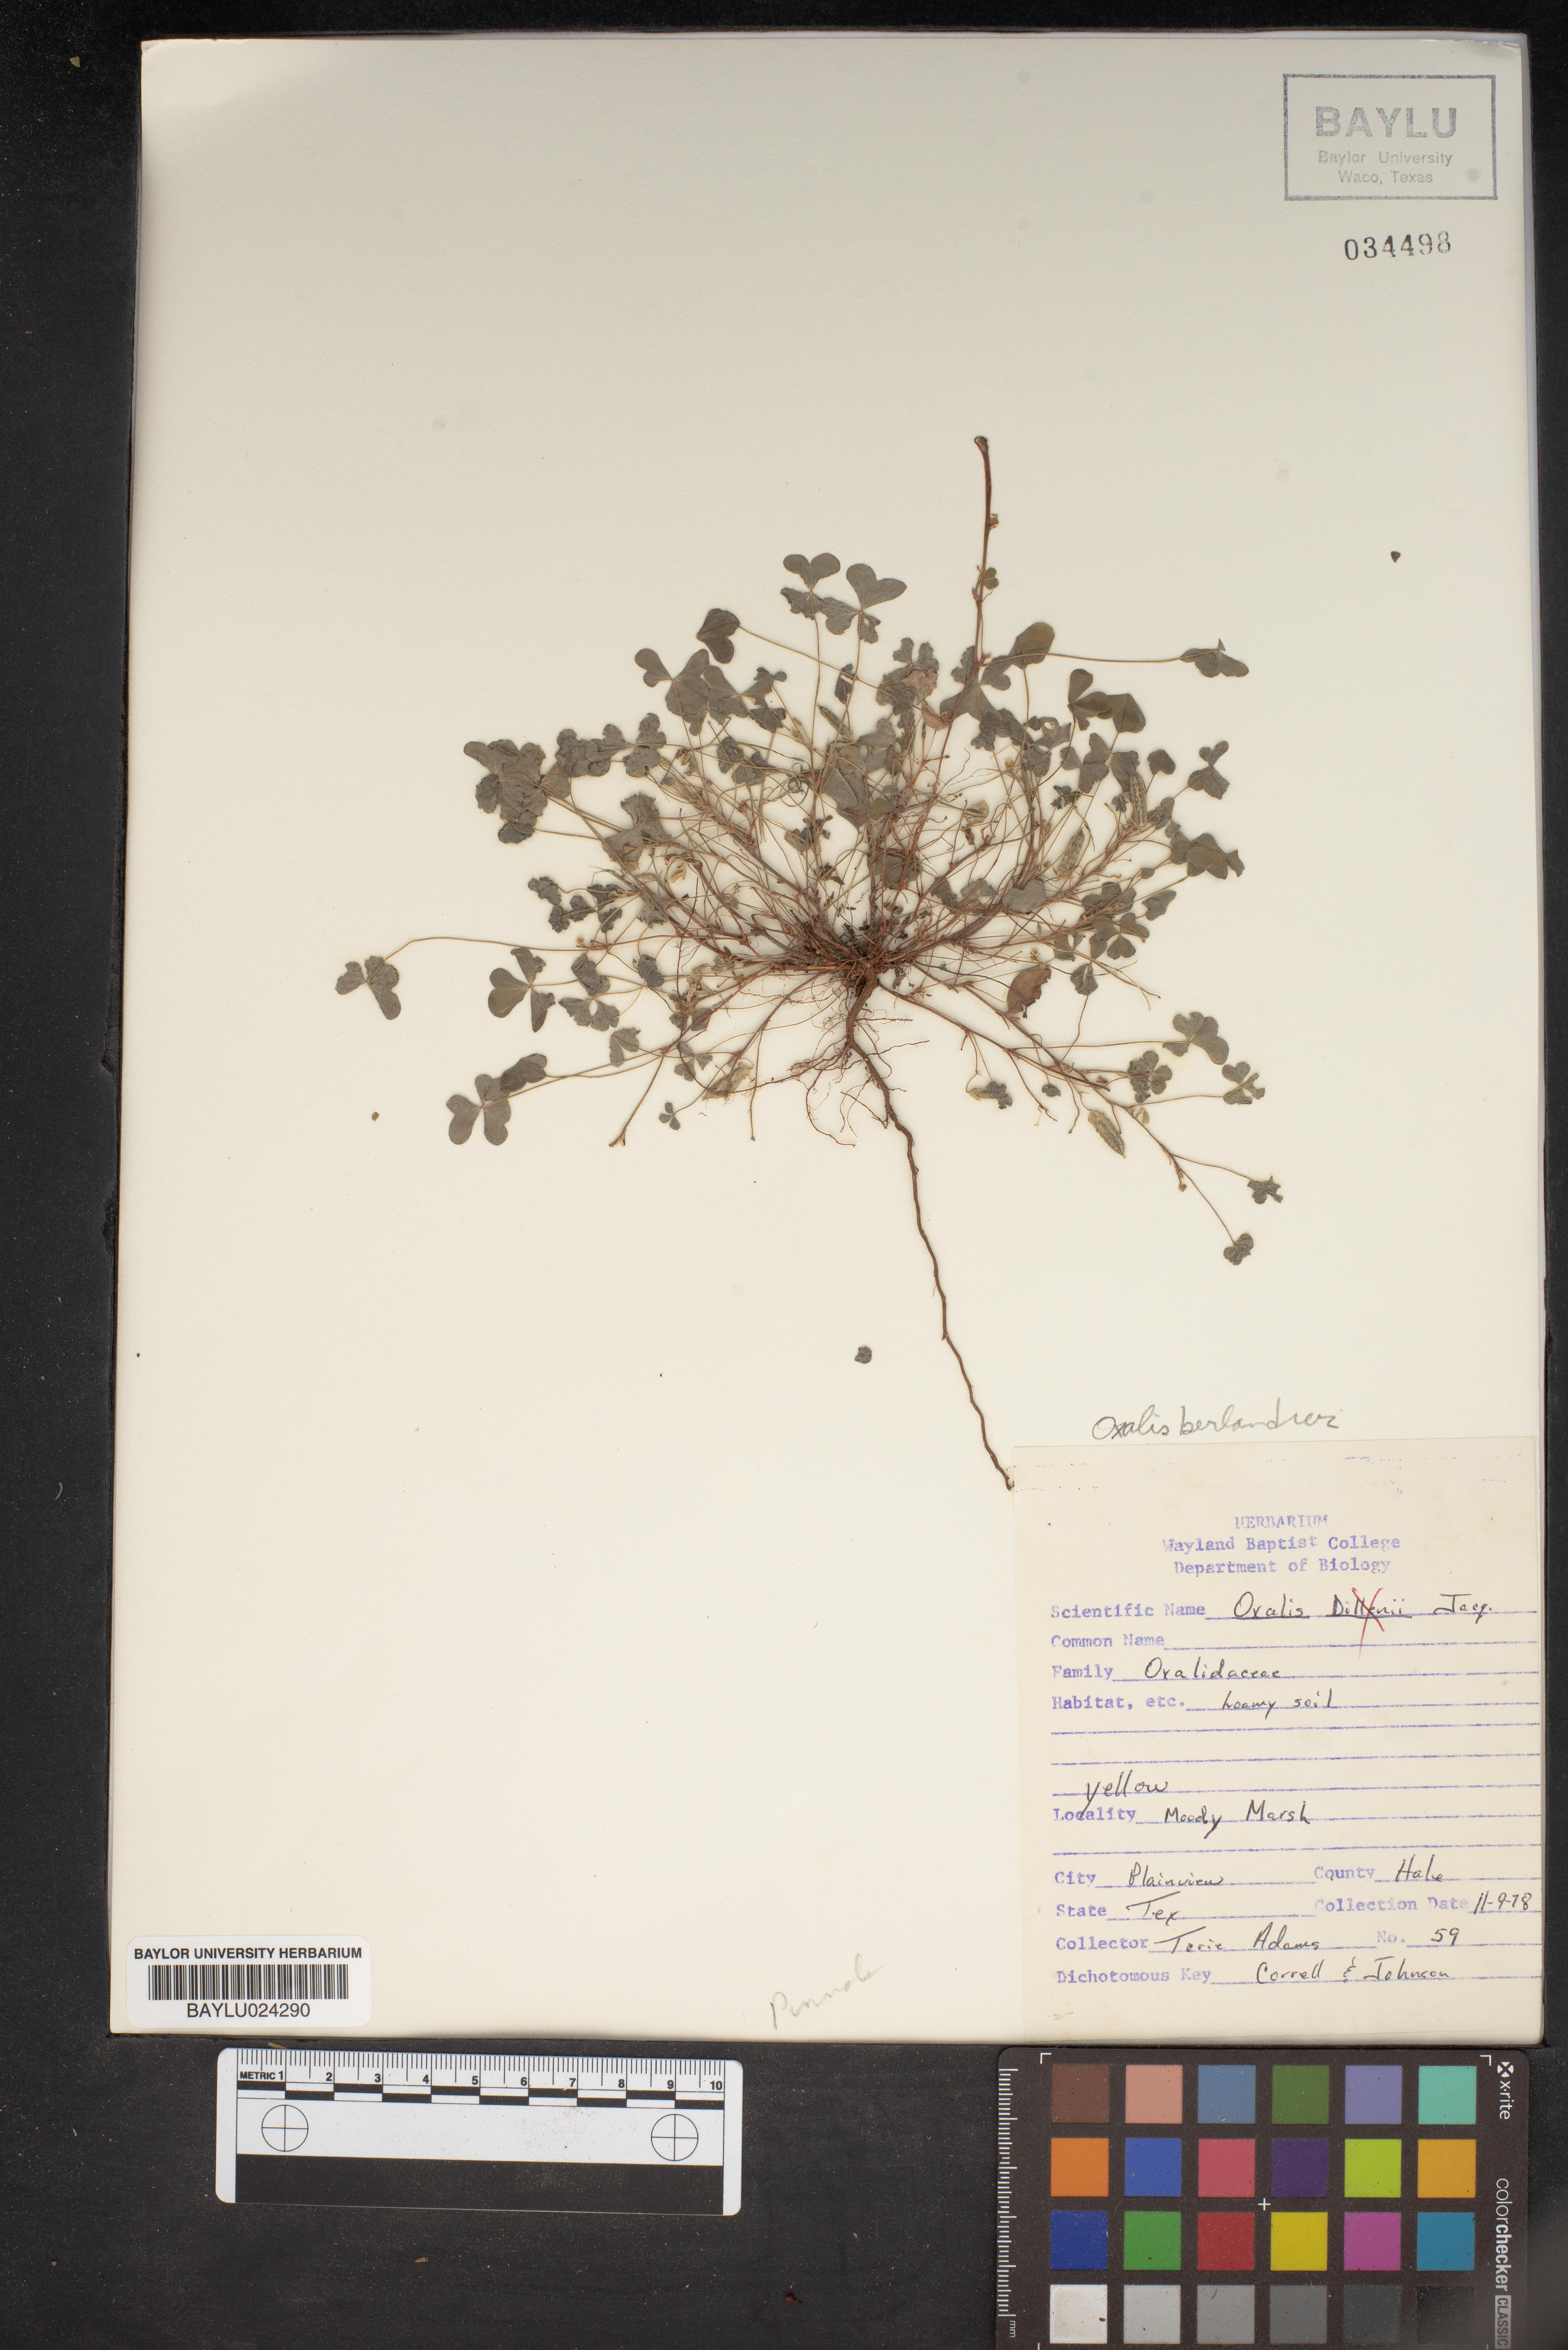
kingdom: Plantae
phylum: Tracheophyta
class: Magnoliopsida
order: Oxalidales
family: Oxalidaceae
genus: Oxalis
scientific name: Oxalis frutescens
